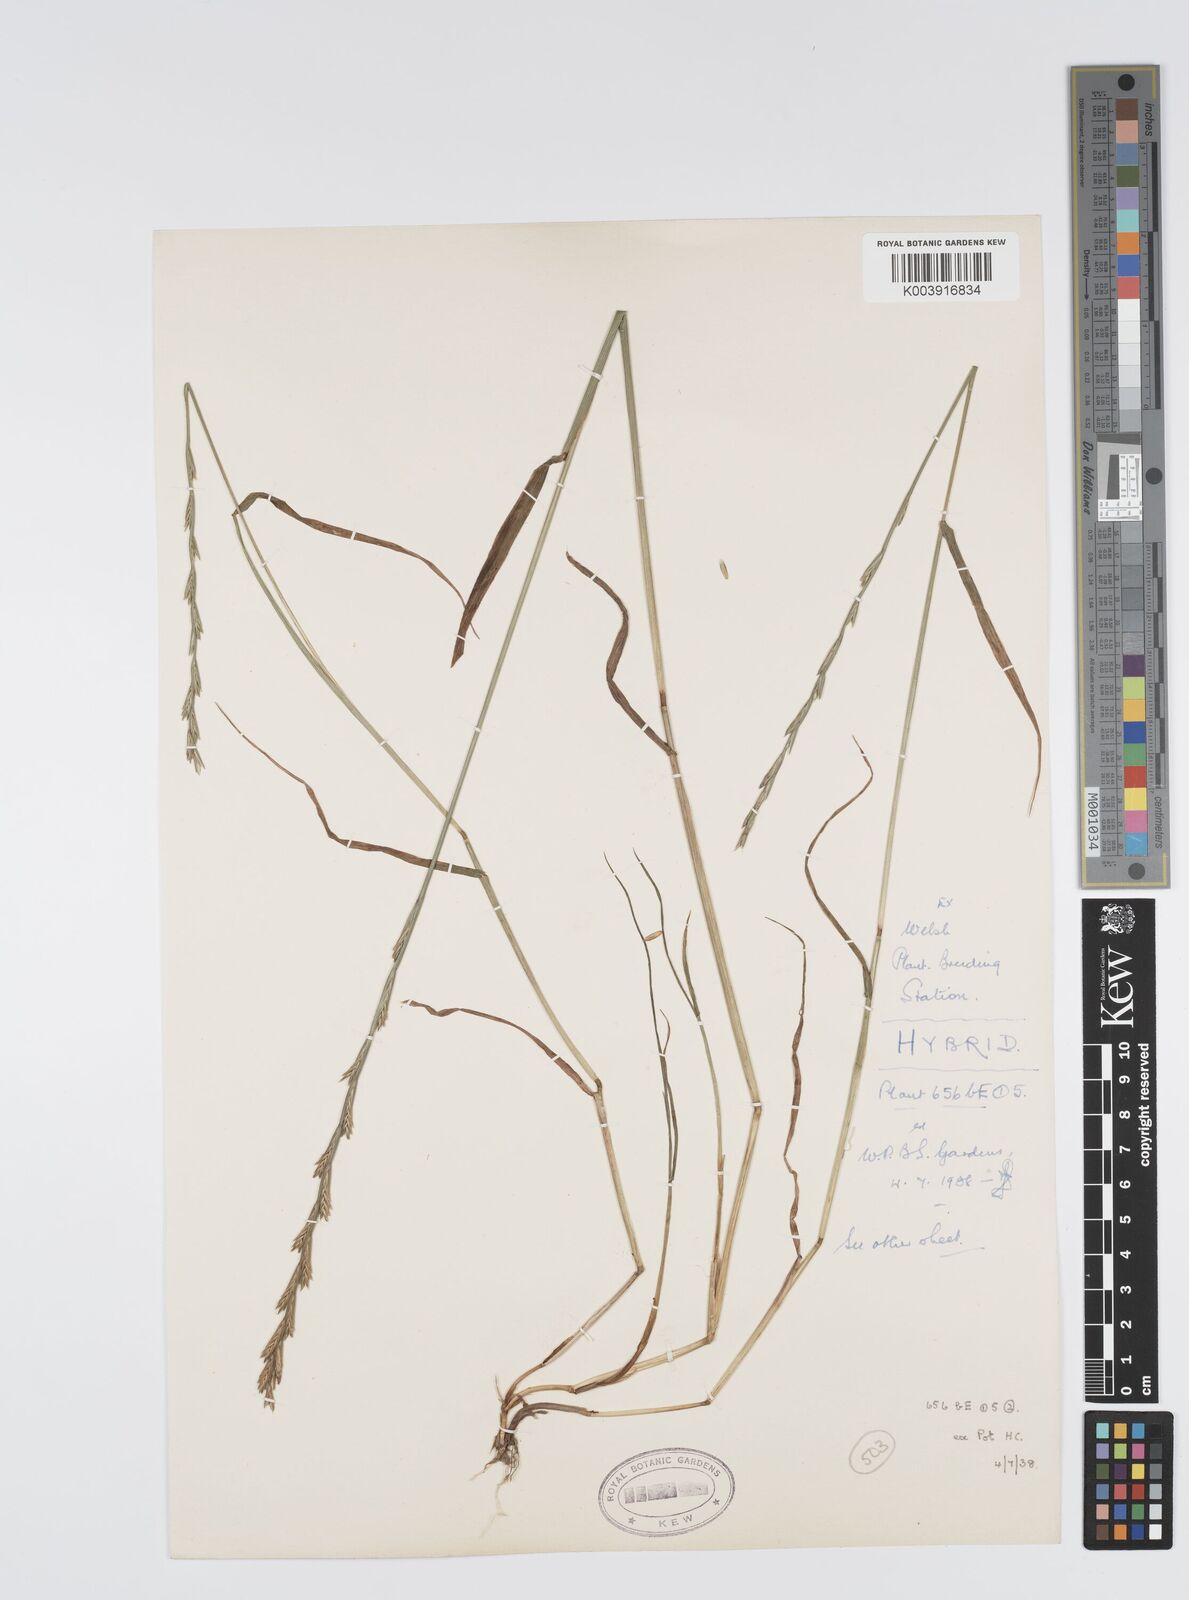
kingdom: Plantae
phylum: Tracheophyta
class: Liliopsida
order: Poales
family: Poaceae
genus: Lolium
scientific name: Lolium perenne
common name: Perennial ryegrass
